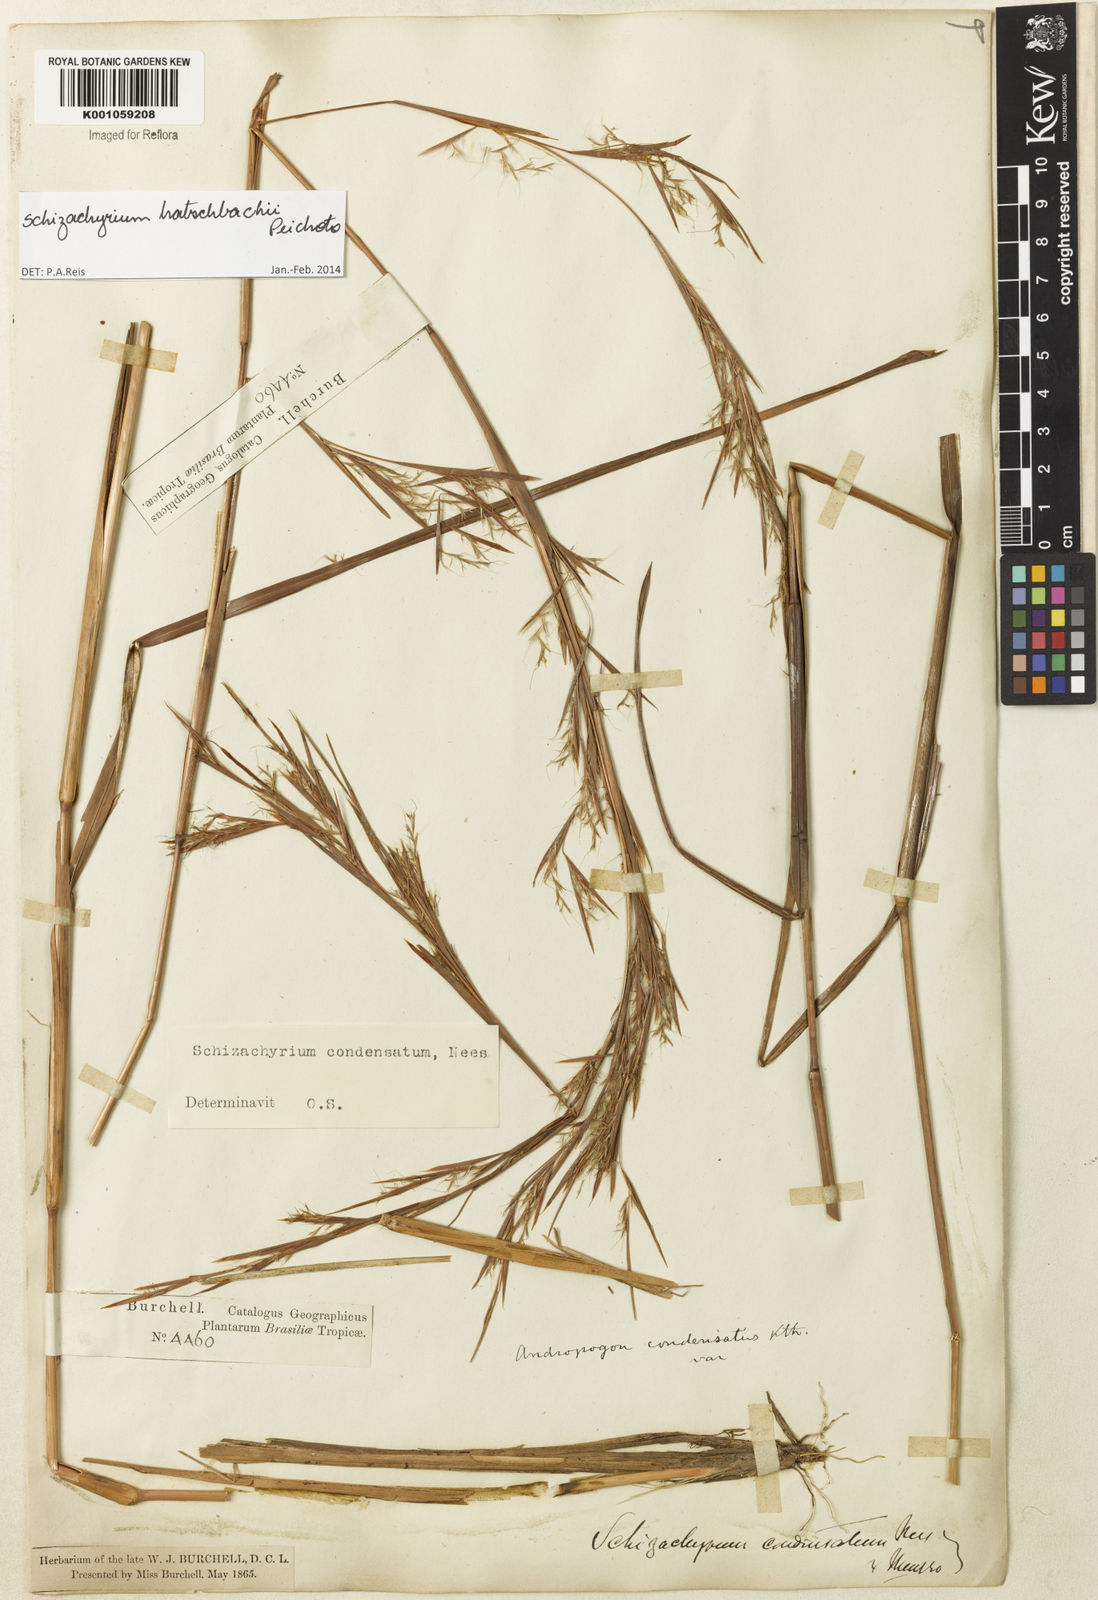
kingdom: Plantae
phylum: Tracheophyta
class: Liliopsida
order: Poales
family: Poaceae
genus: Schizachyrium
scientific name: Schizachyrium hatschbachii
